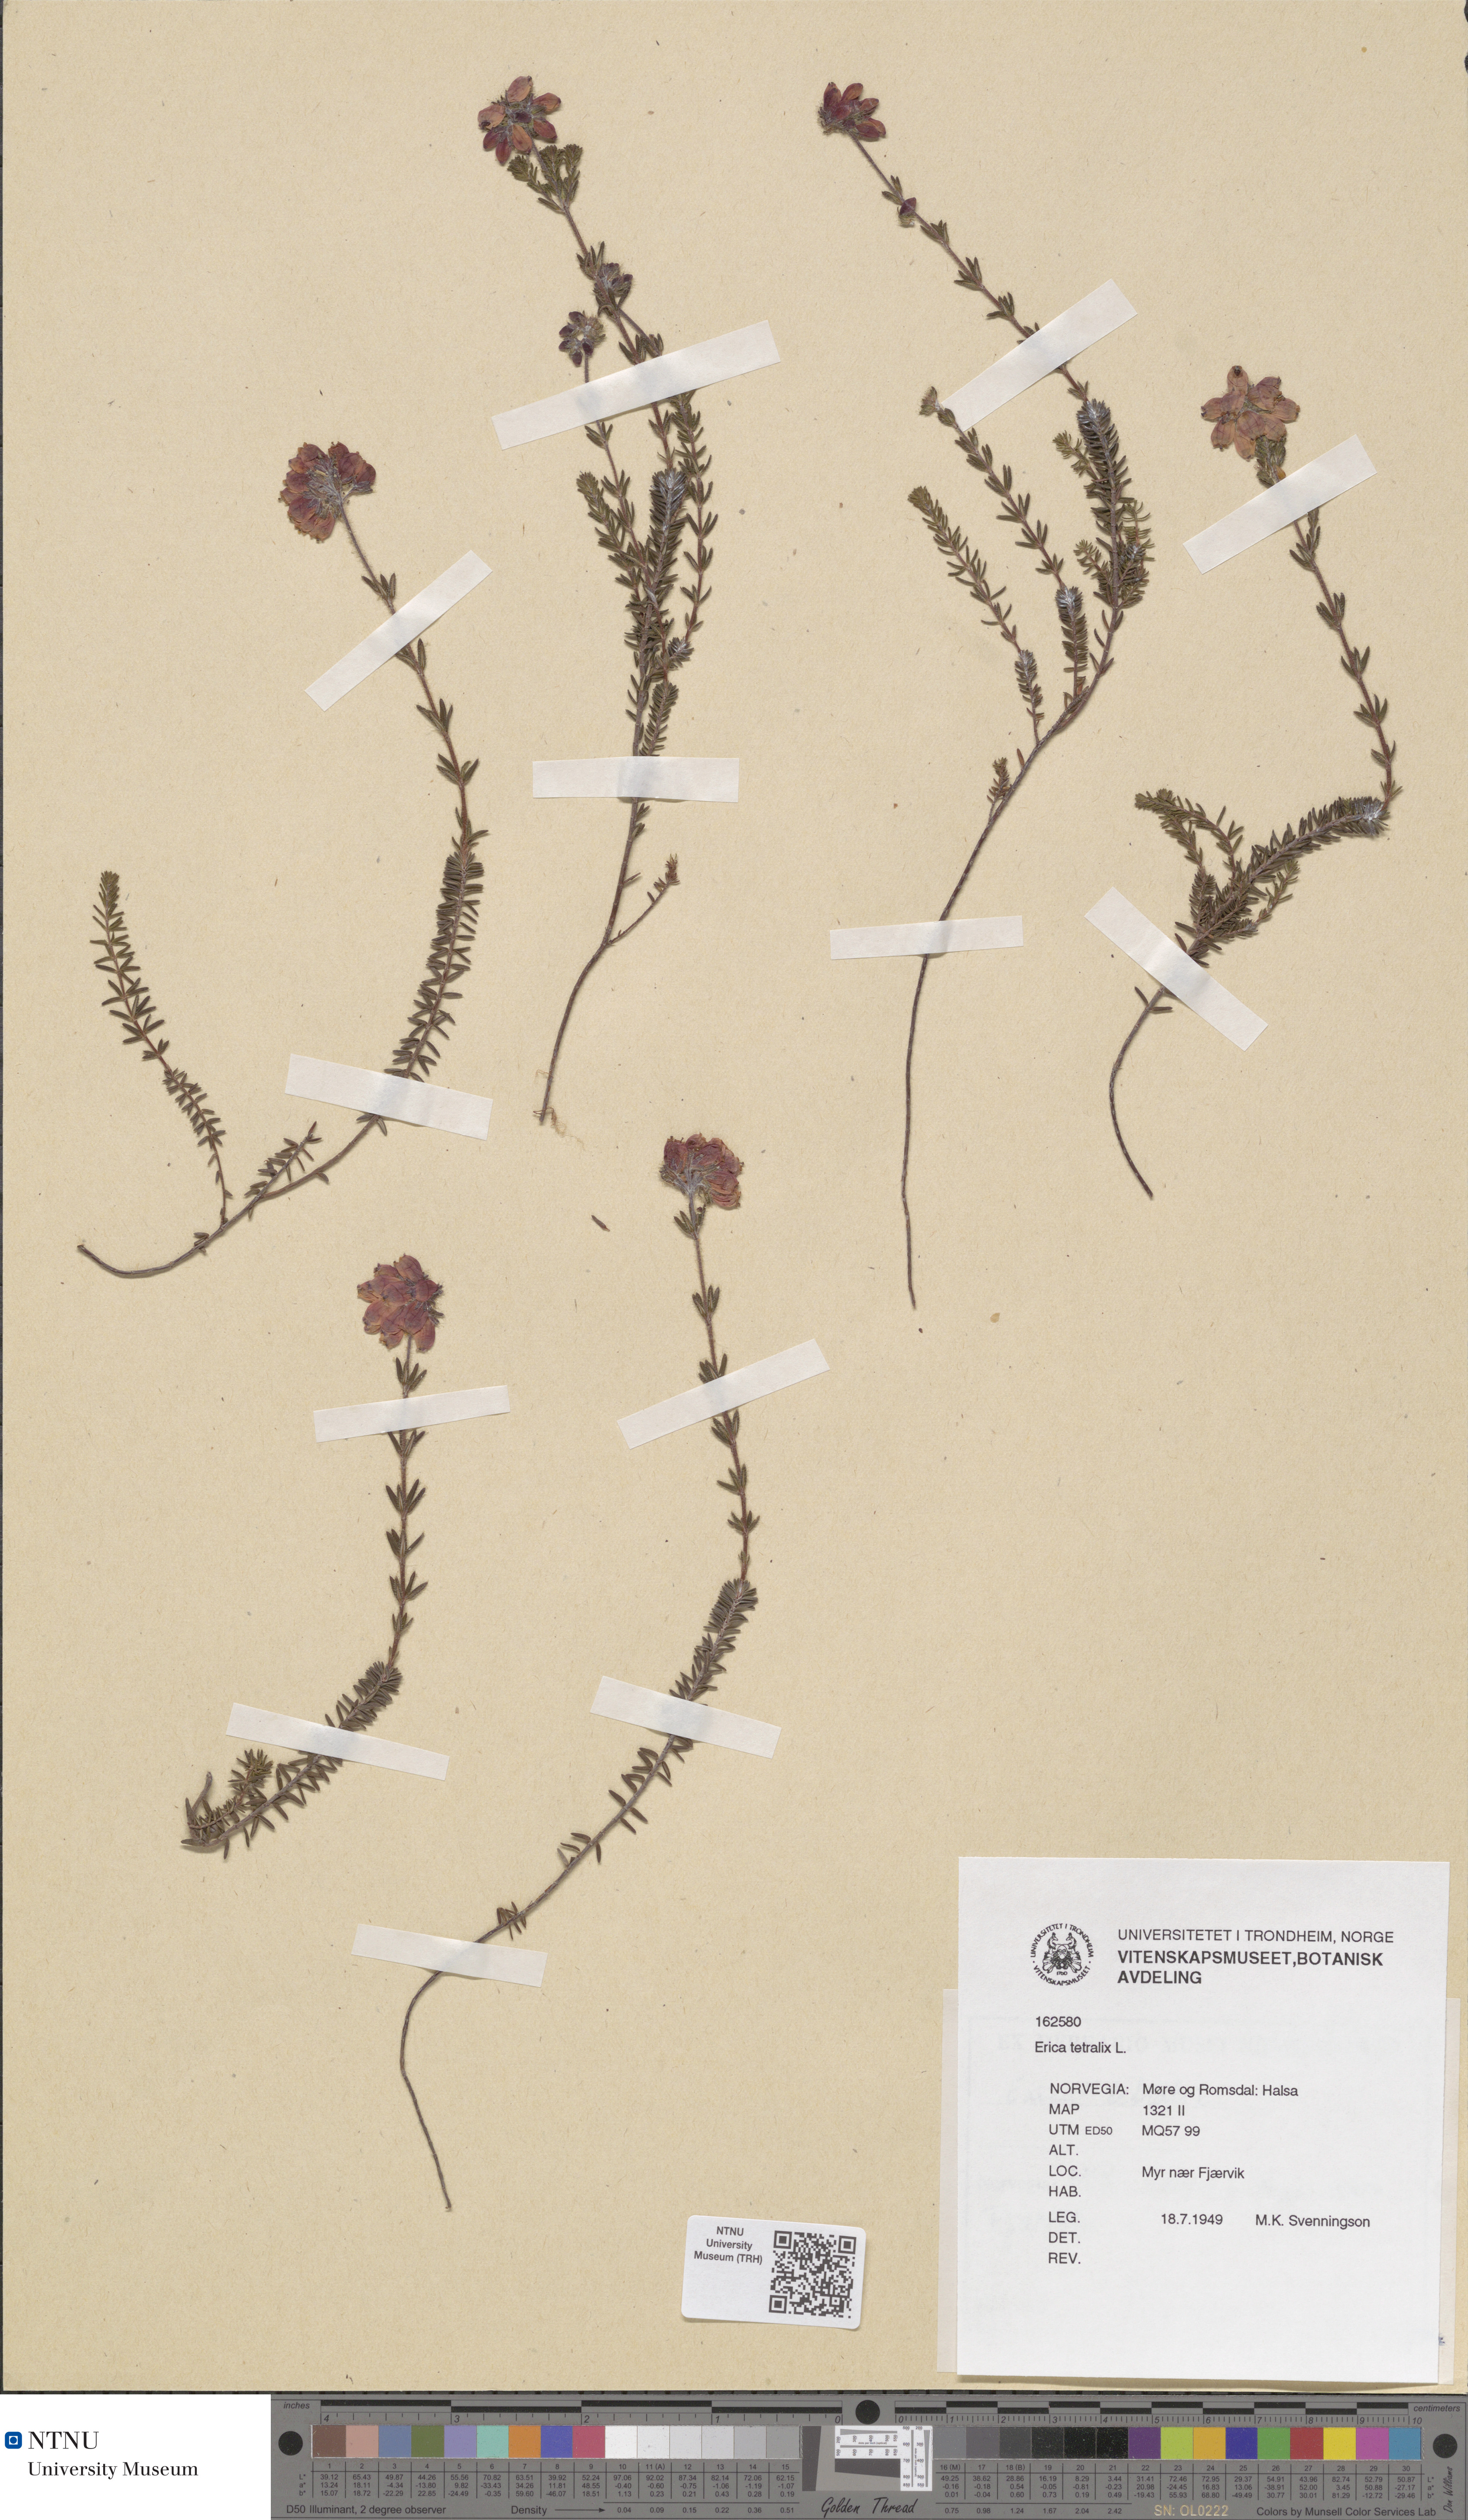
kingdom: Plantae
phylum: Tracheophyta
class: Magnoliopsida
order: Ericales
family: Ericaceae
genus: Erica
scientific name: Erica tetralix
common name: Cross-leaved heath
